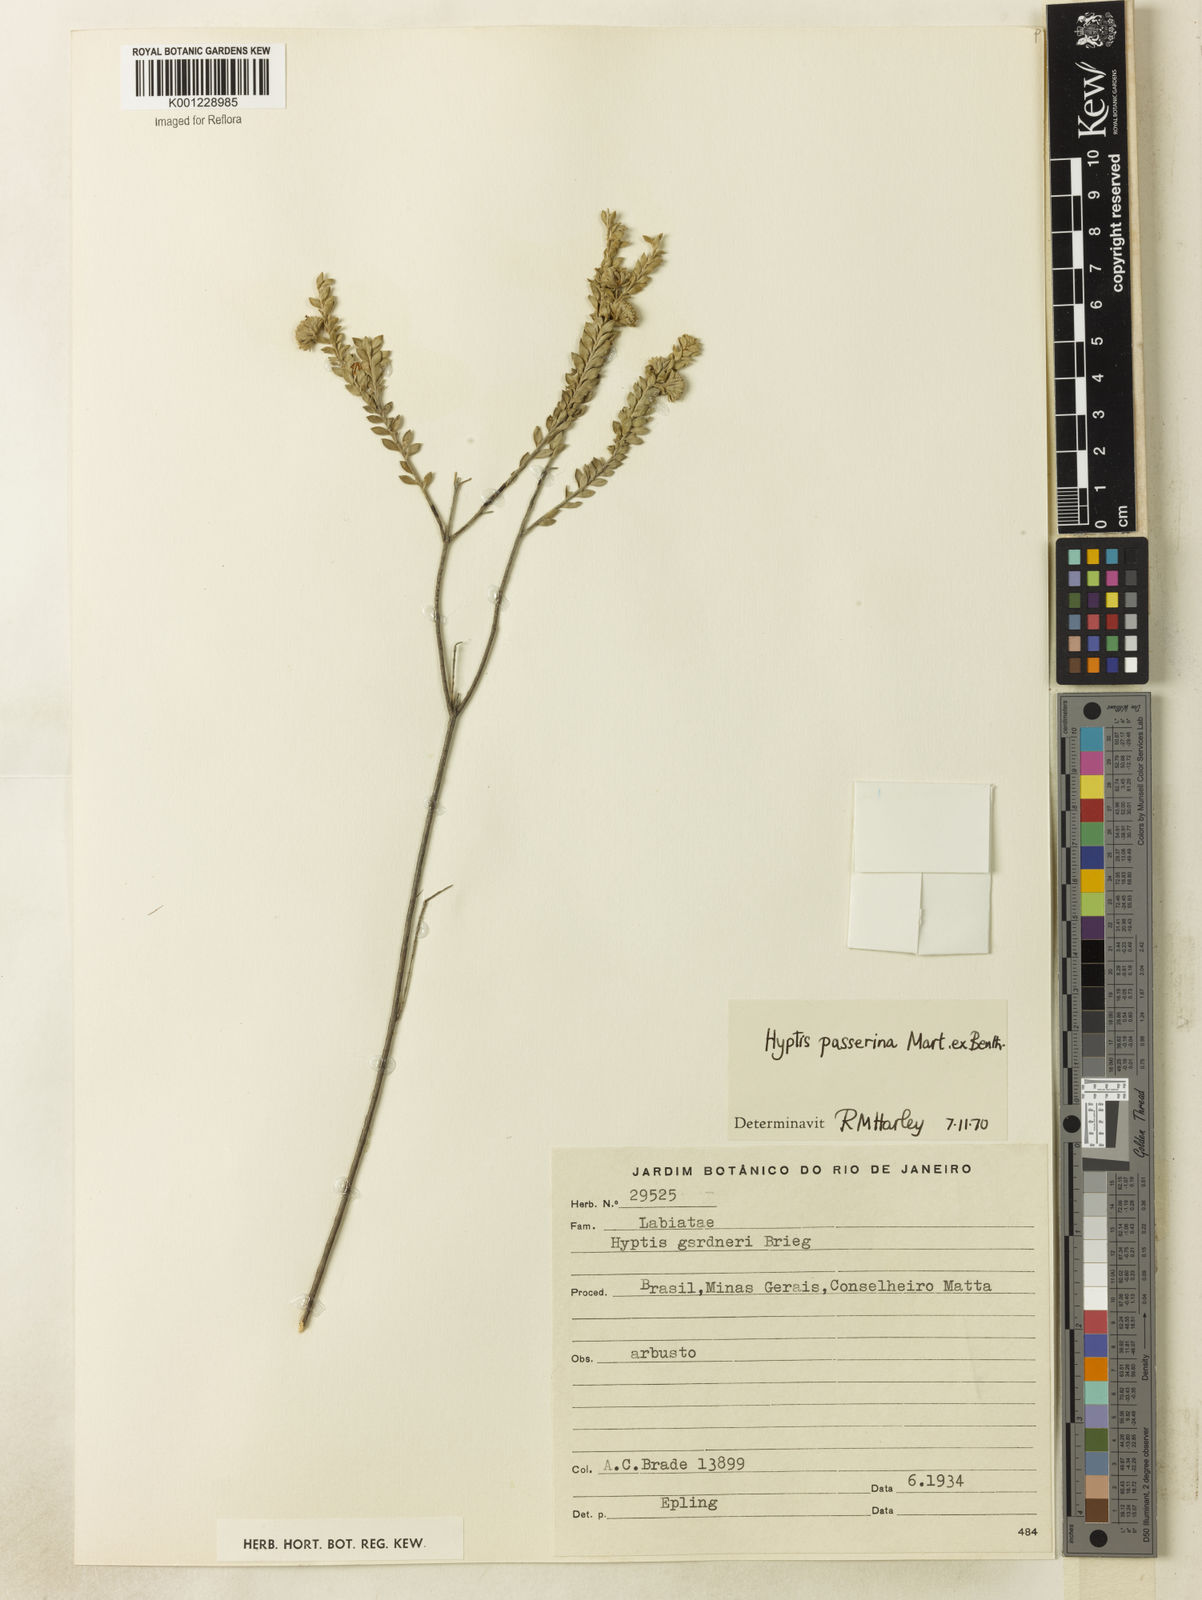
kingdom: Plantae
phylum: Tracheophyta
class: Magnoliopsida
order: Lamiales
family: Lamiaceae
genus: Hyptis
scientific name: Hyptis passerina
